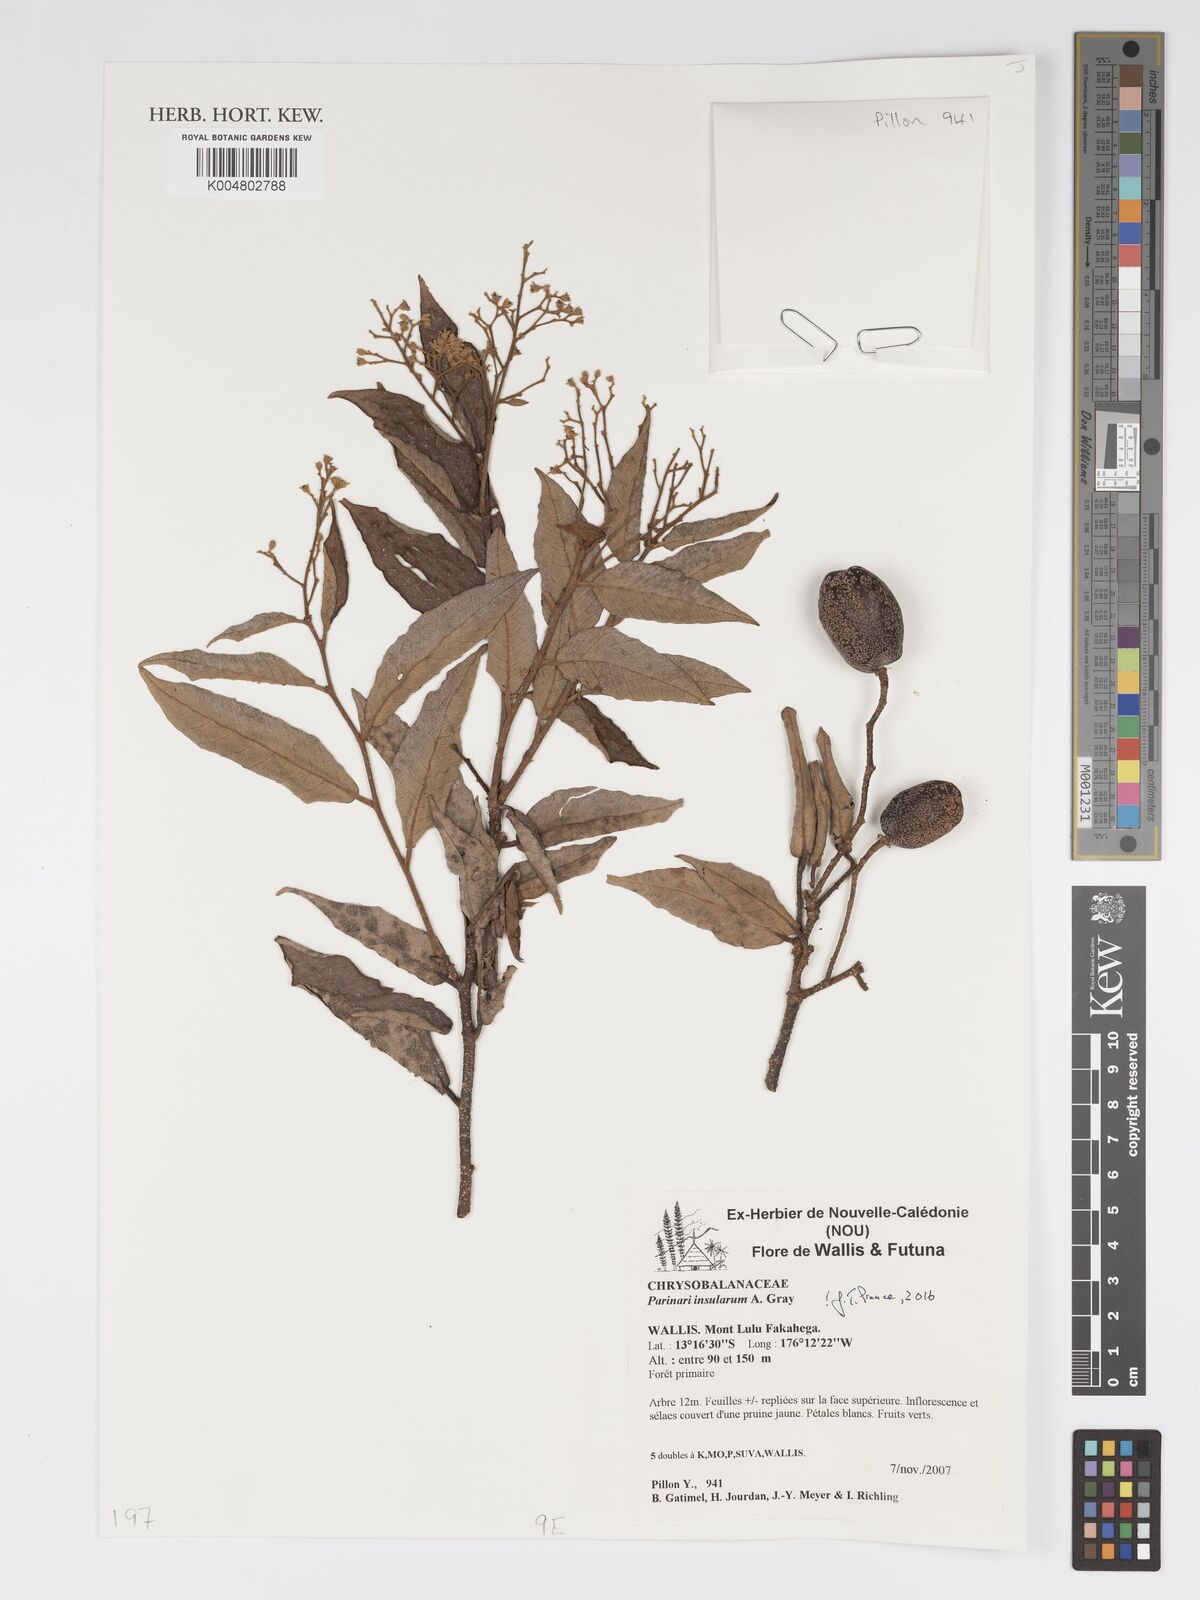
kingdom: Plantae
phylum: Tracheophyta
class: Magnoliopsida
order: Malpighiales
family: Chrysobalanaceae
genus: Parinari
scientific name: Parinari insularum
